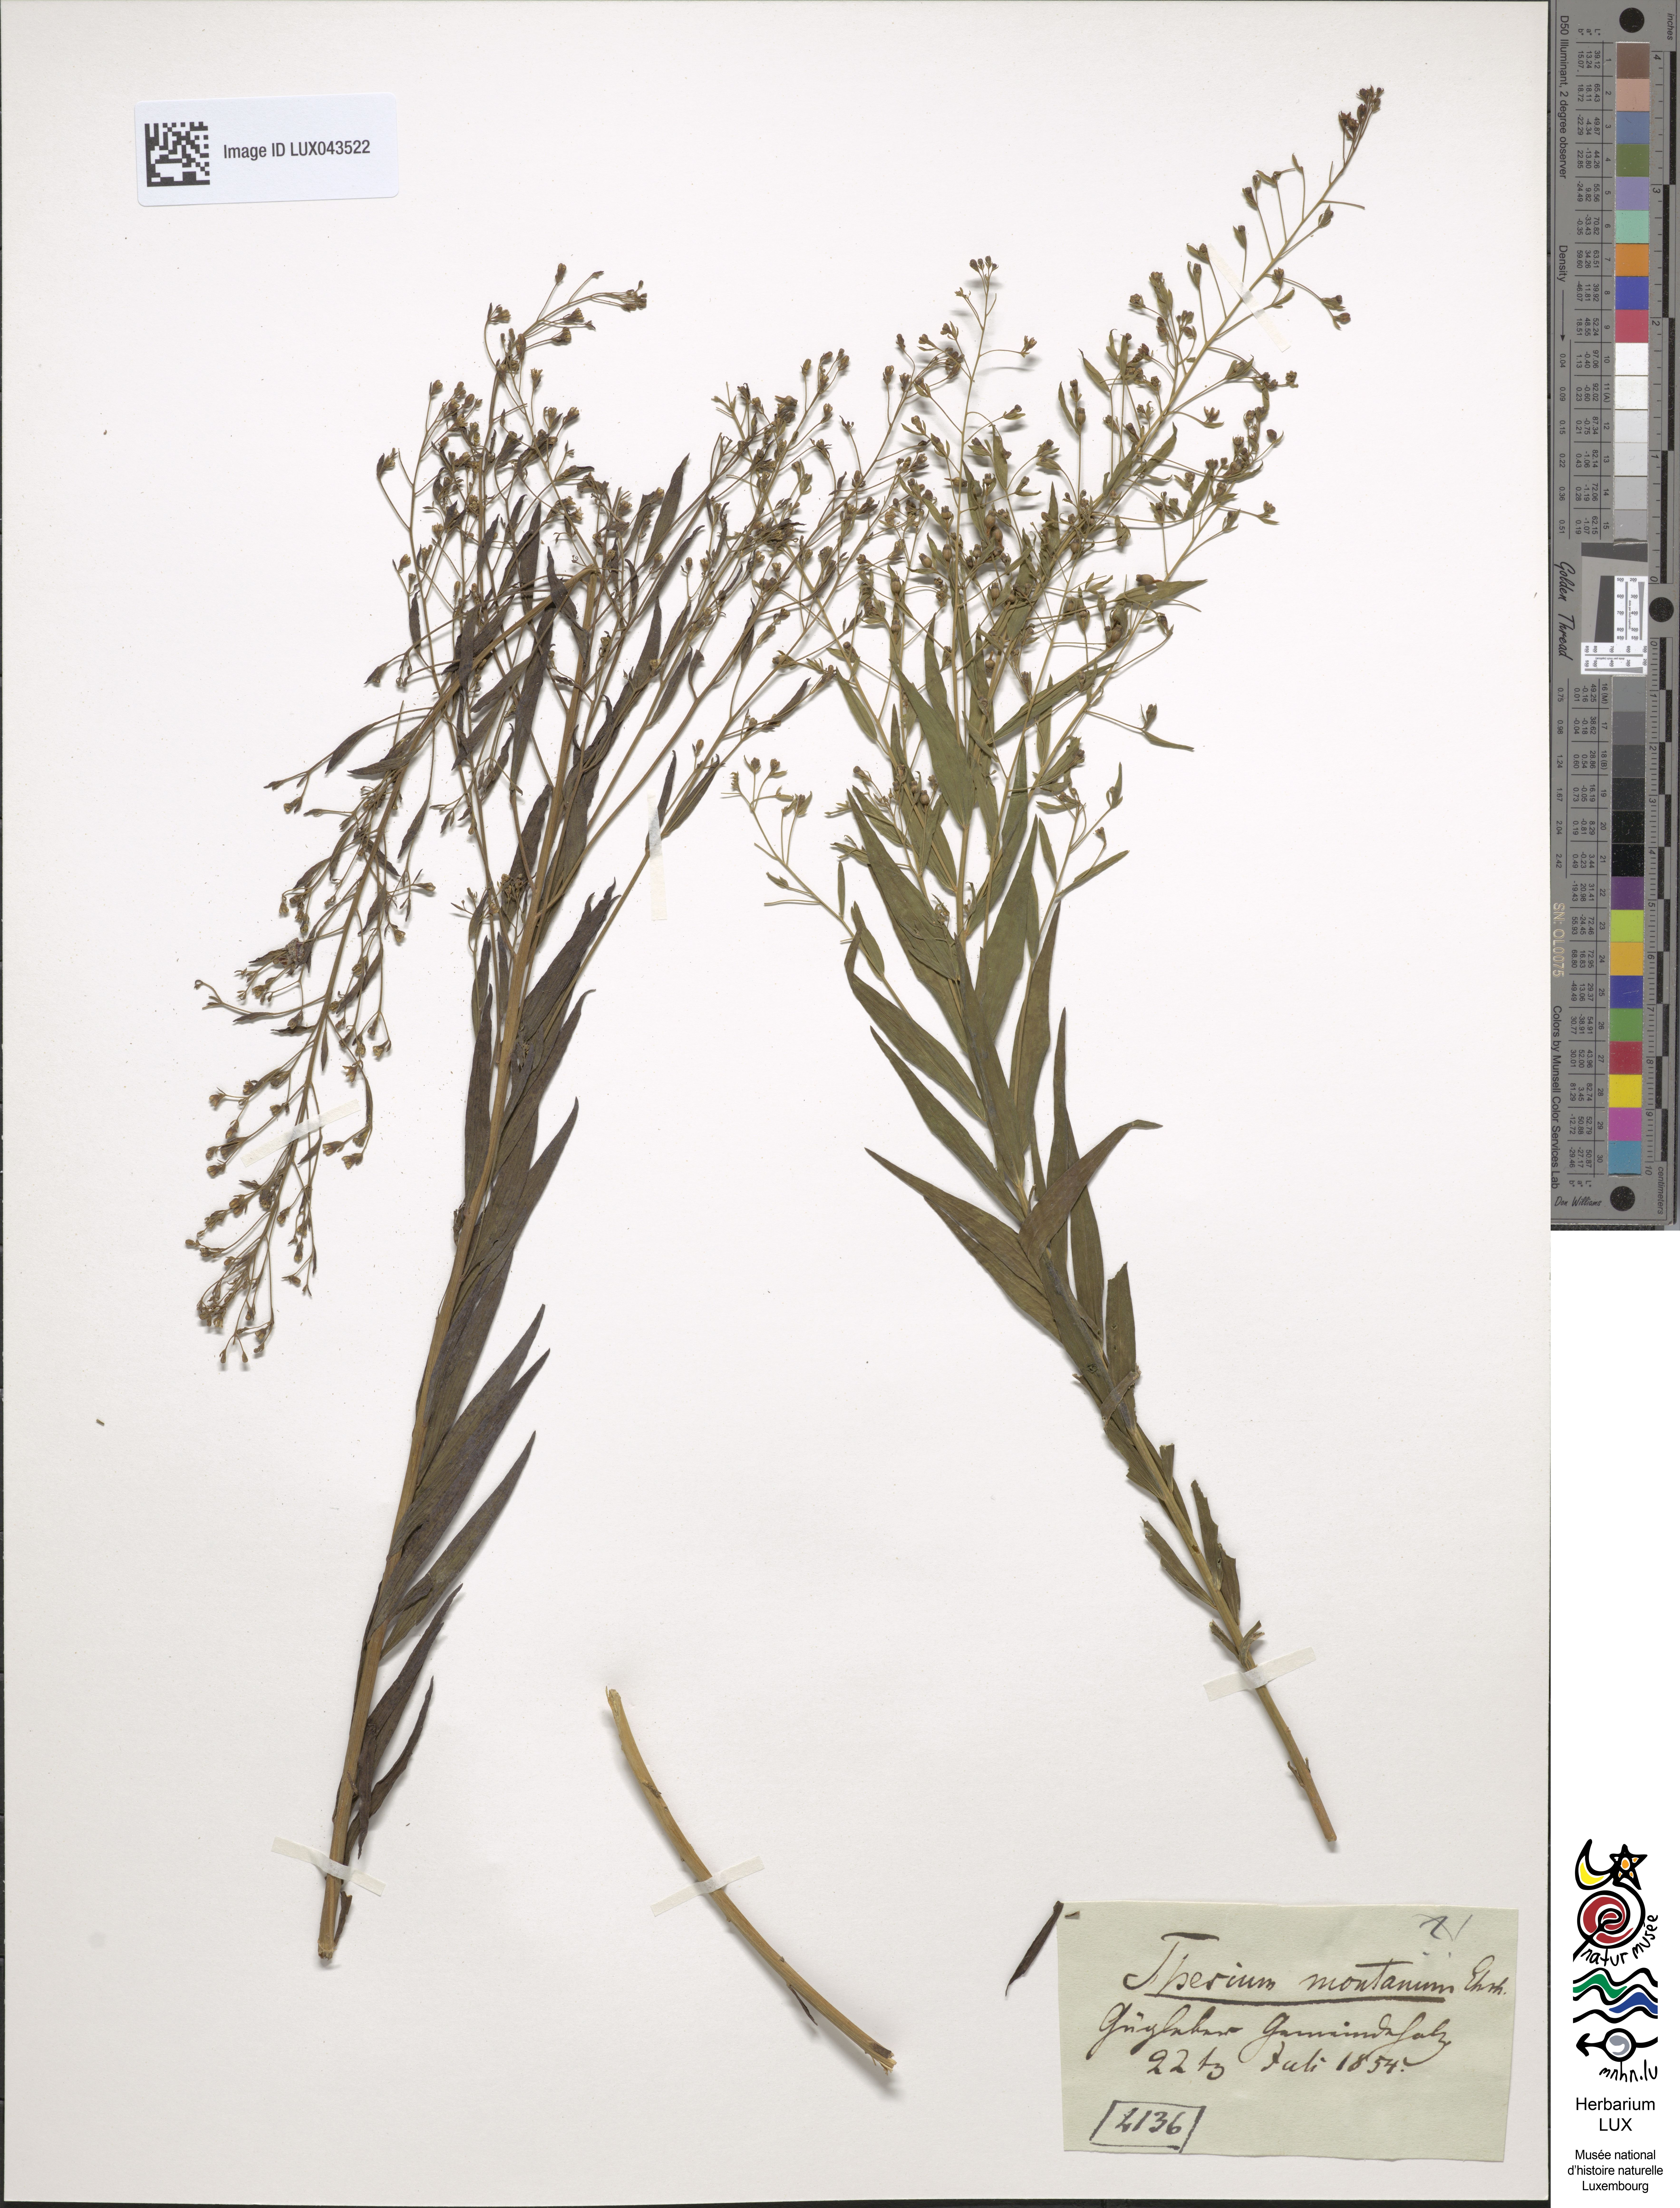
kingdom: Plantae
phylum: Tracheophyta
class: Magnoliopsida
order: Santalales
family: Thesiaceae
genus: Thesium
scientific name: Thesium bavarum
